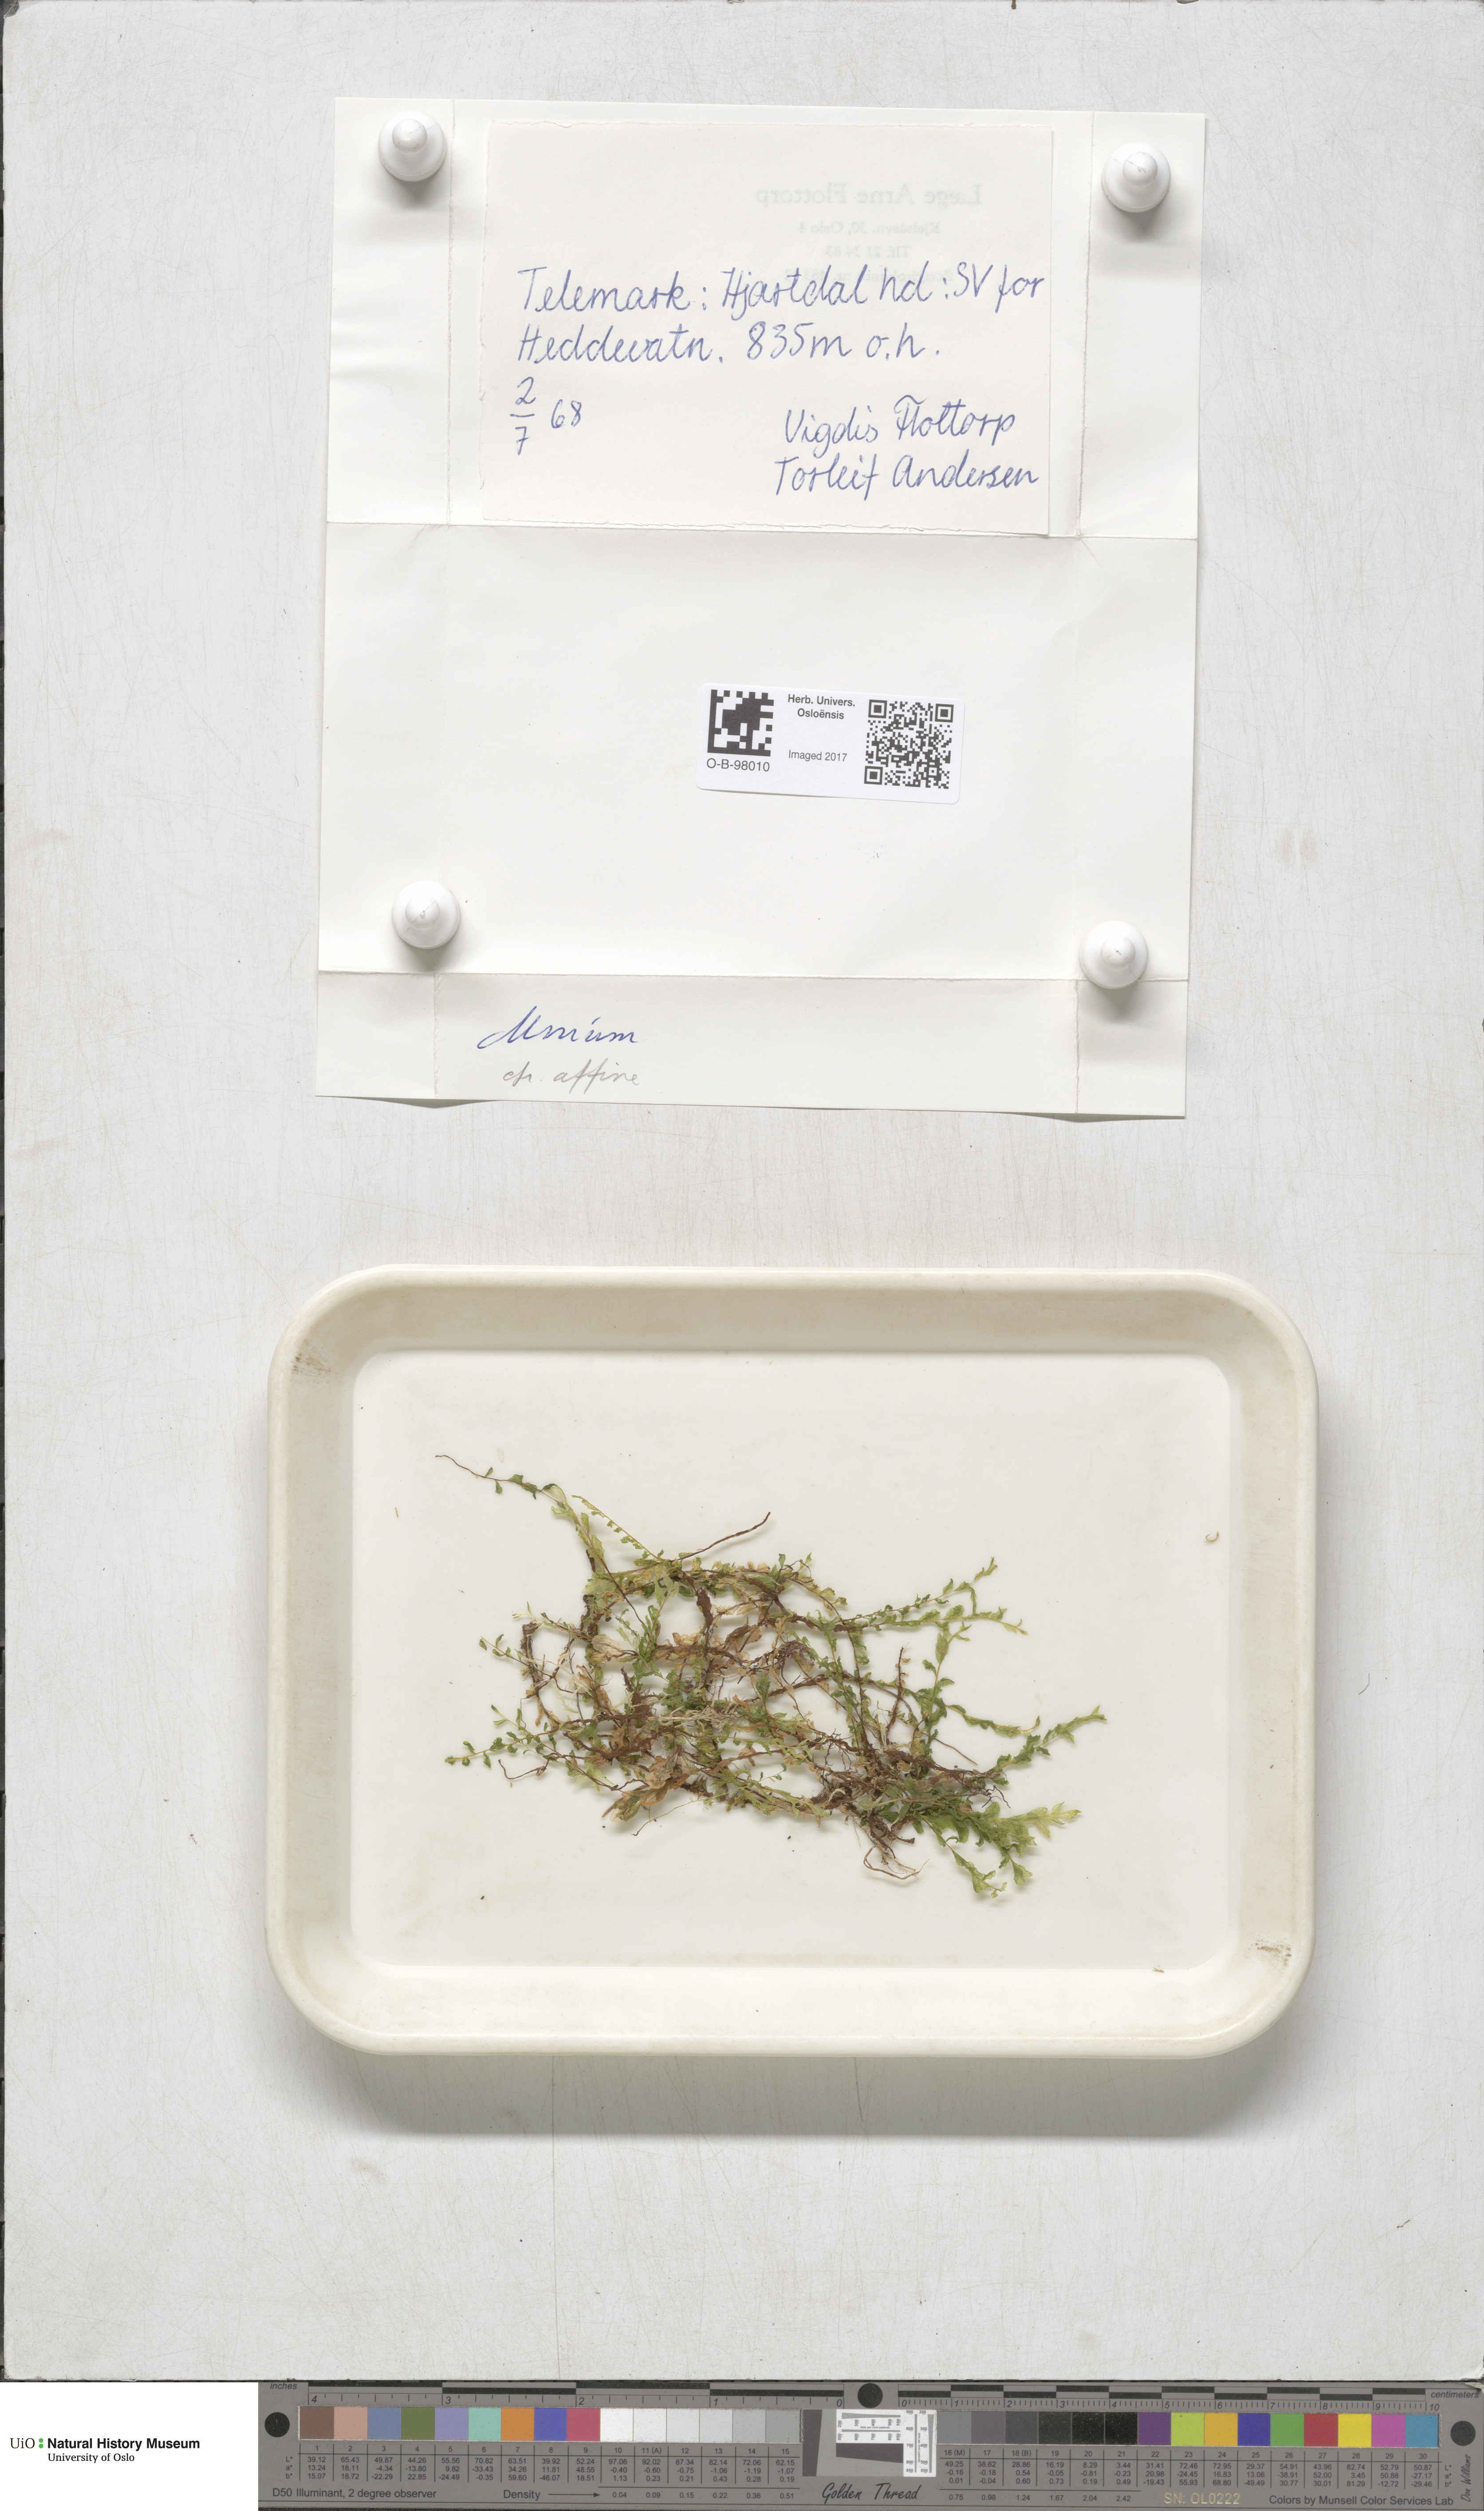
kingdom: Plantae
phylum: Bryophyta
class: Bryopsida
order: Bryales
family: Mniaceae
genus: Plagiomnium
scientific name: Plagiomnium affine
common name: Many-fruited thyme-moss
